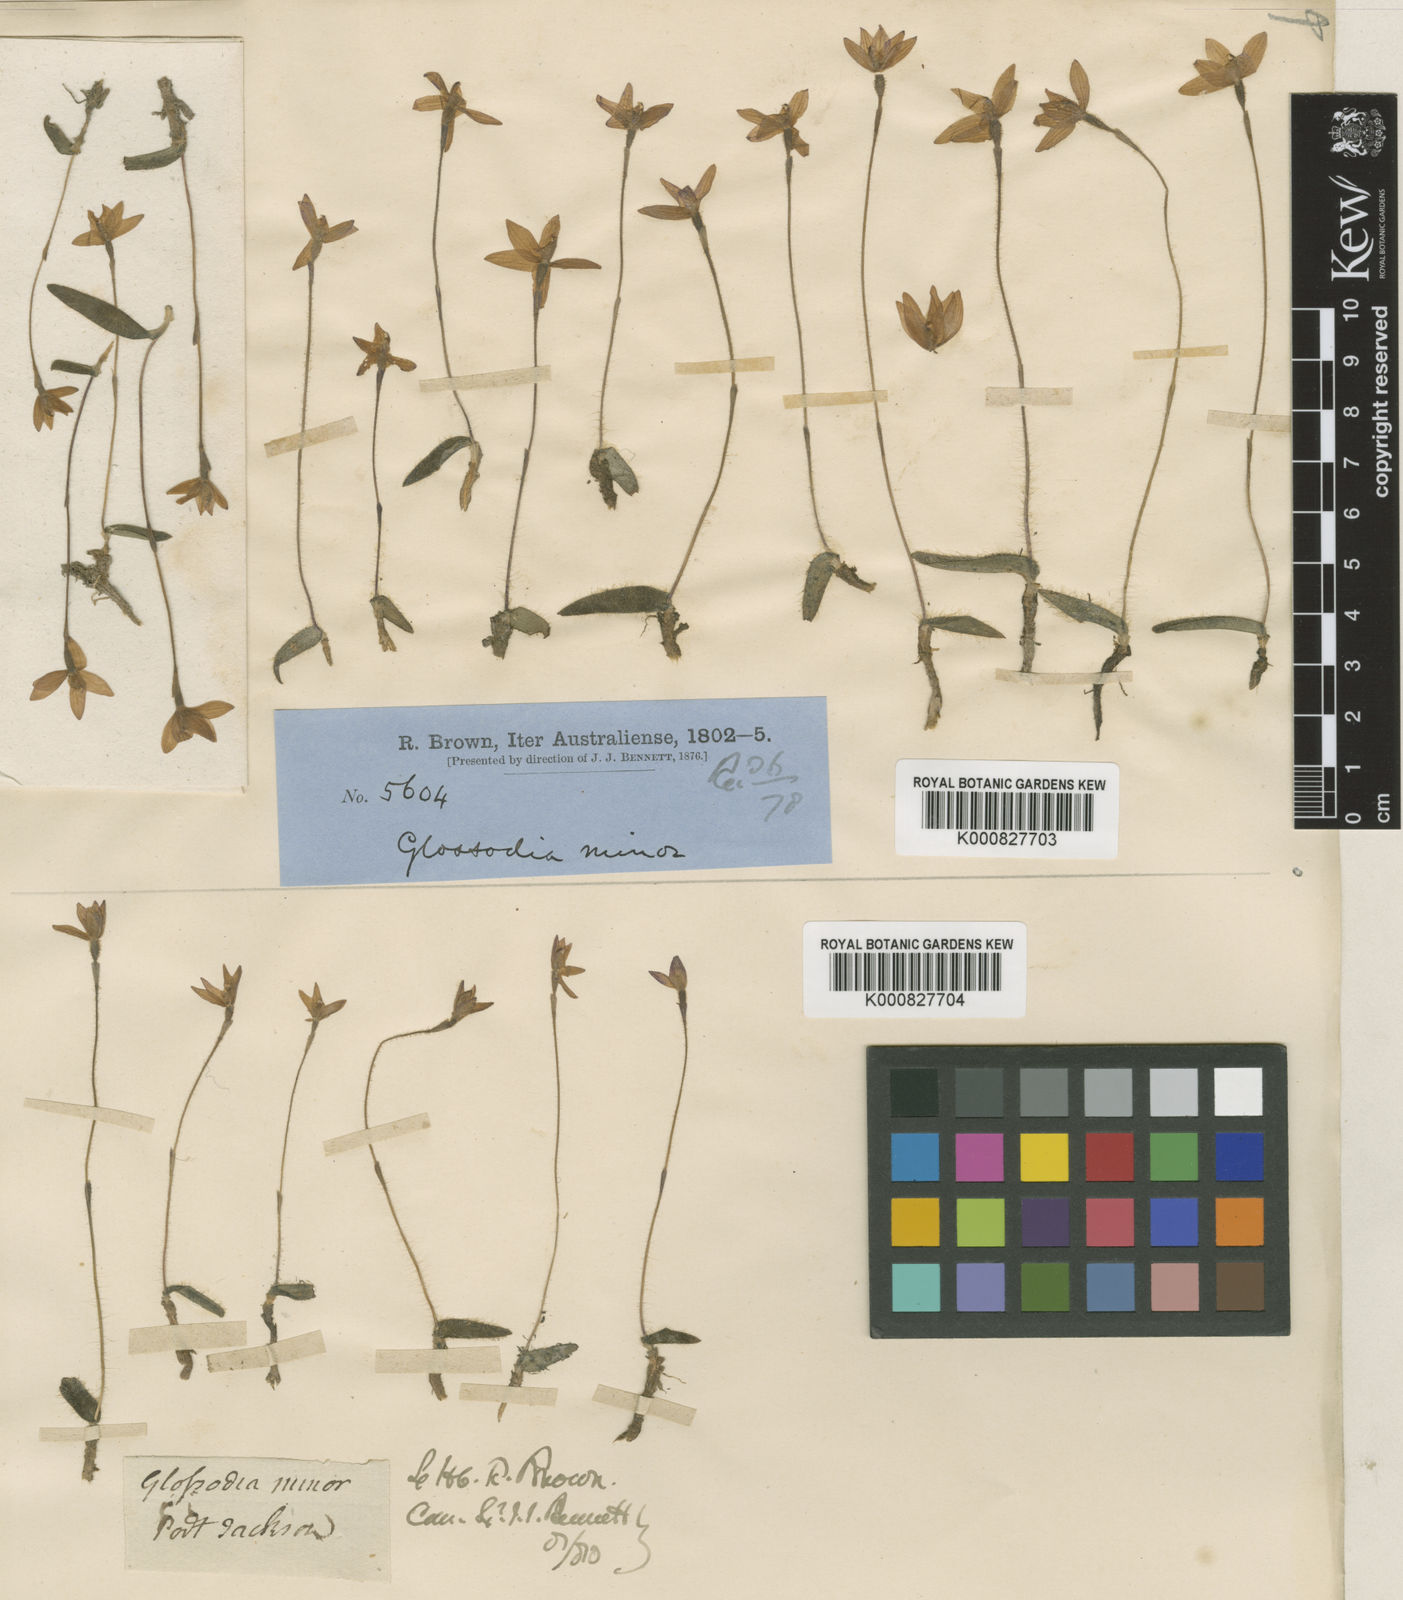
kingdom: Plantae
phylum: Tracheophyta
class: Liliopsida
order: Asparagales
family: Orchidaceae
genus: Caladenia
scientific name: Caladenia minorata
